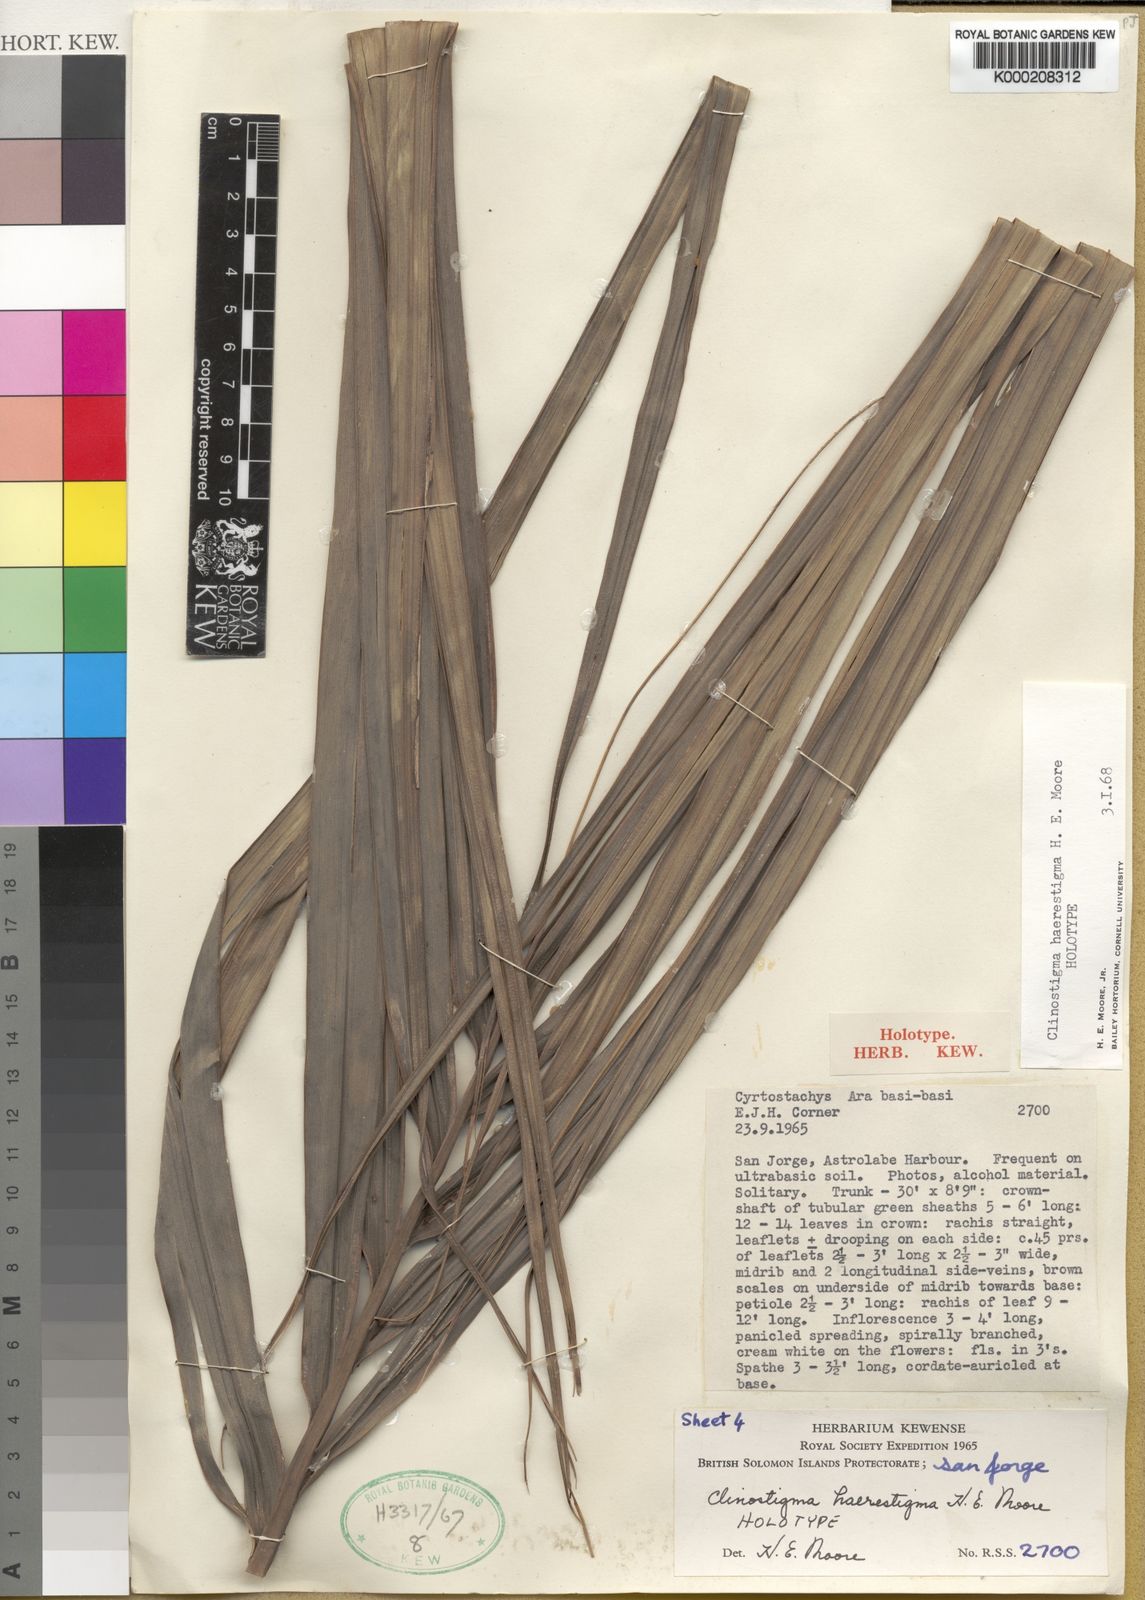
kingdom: Plantae
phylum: Tracheophyta
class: Liliopsida
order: Arecales
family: Arecaceae
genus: Clinostigma
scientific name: Clinostigma haerestigma
